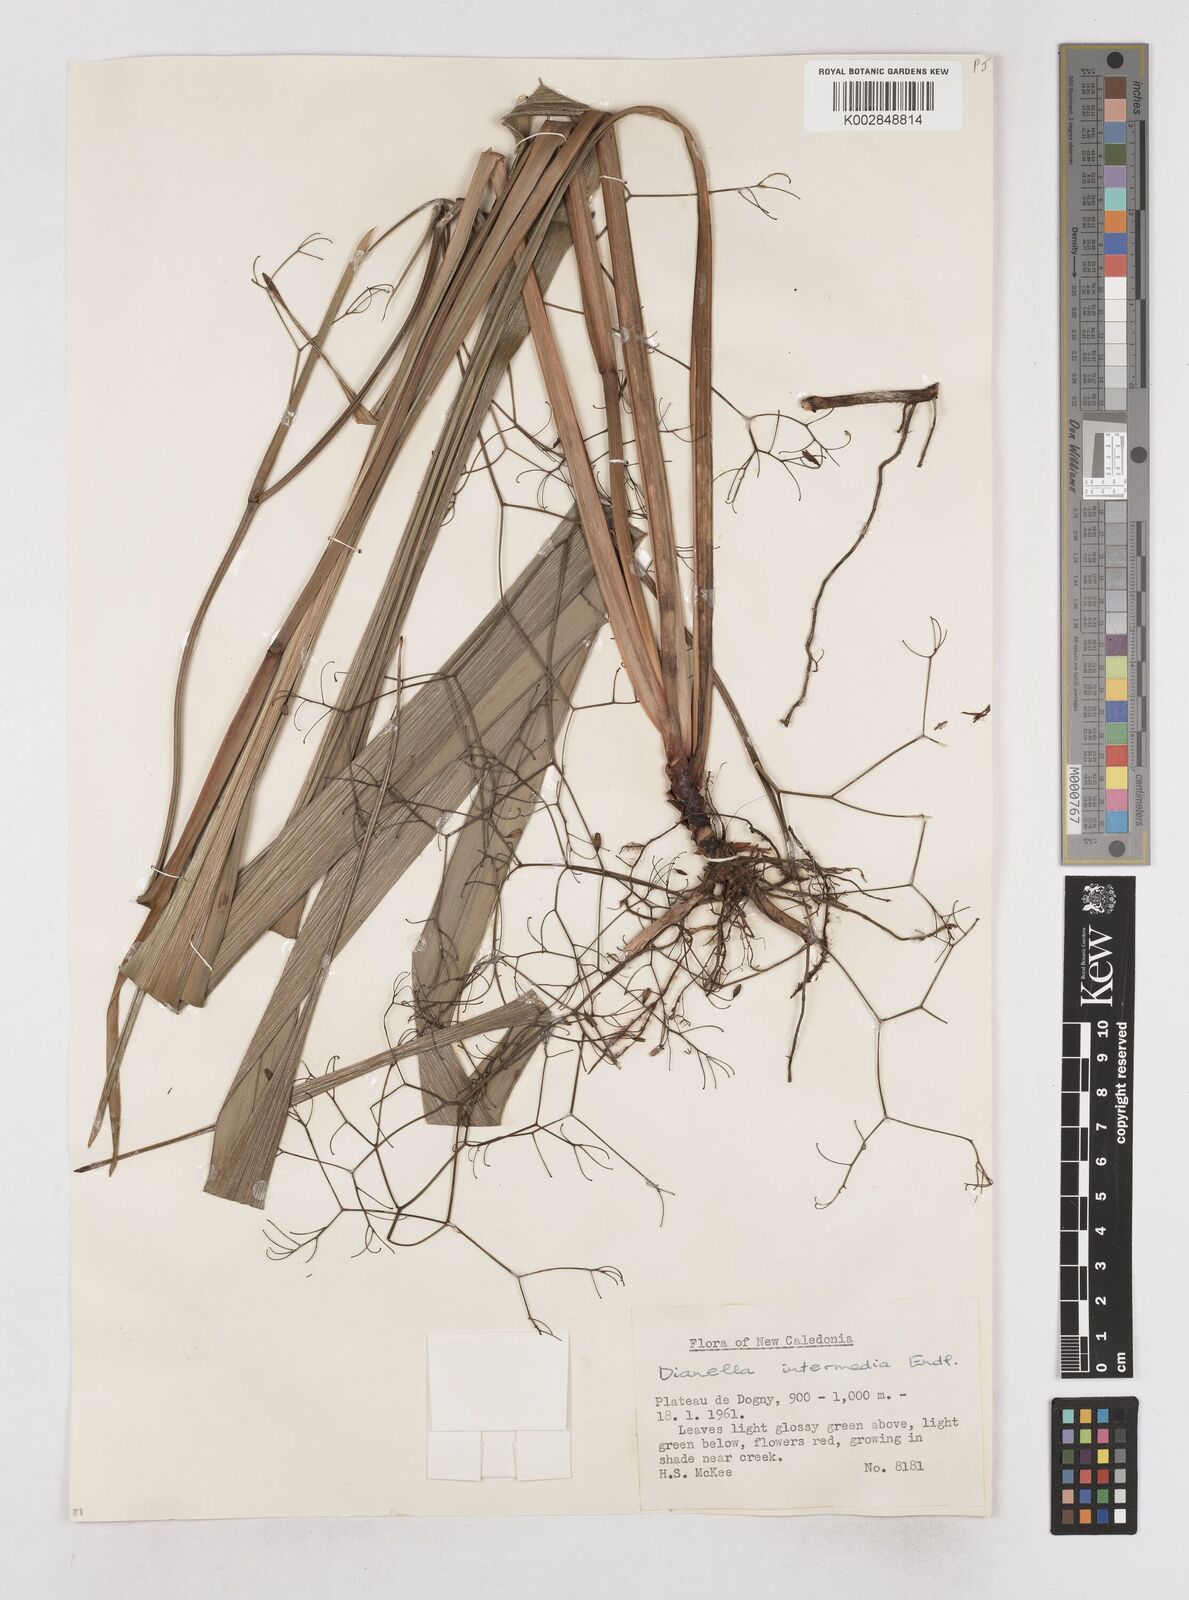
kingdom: Plantae
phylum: Tracheophyta
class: Liliopsida
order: Asparagales
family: Asphodelaceae
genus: Dianella
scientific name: Dianella intermedia
